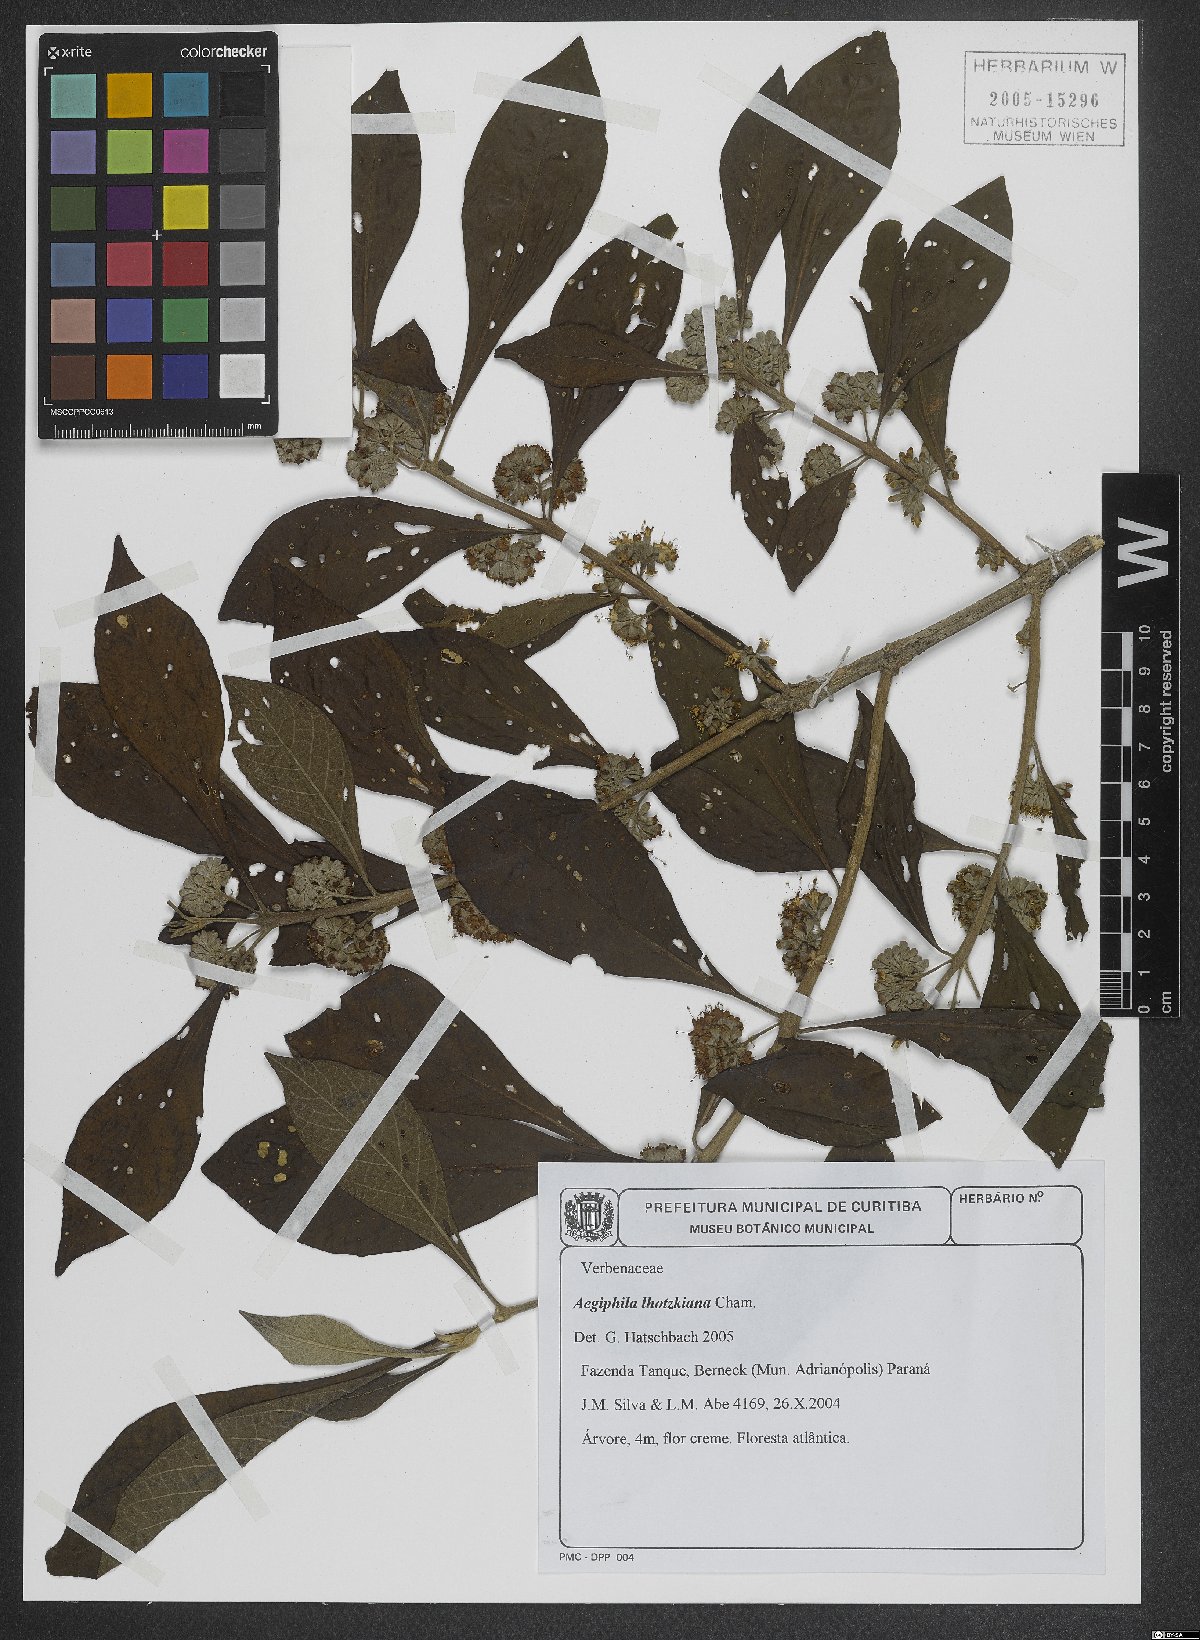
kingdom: Plantae
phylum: Tracheophyta
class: Magnoliopsida
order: Lamiales
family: Lamiaceae
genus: Aegiphila
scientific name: Aegiphila lhotskiana
